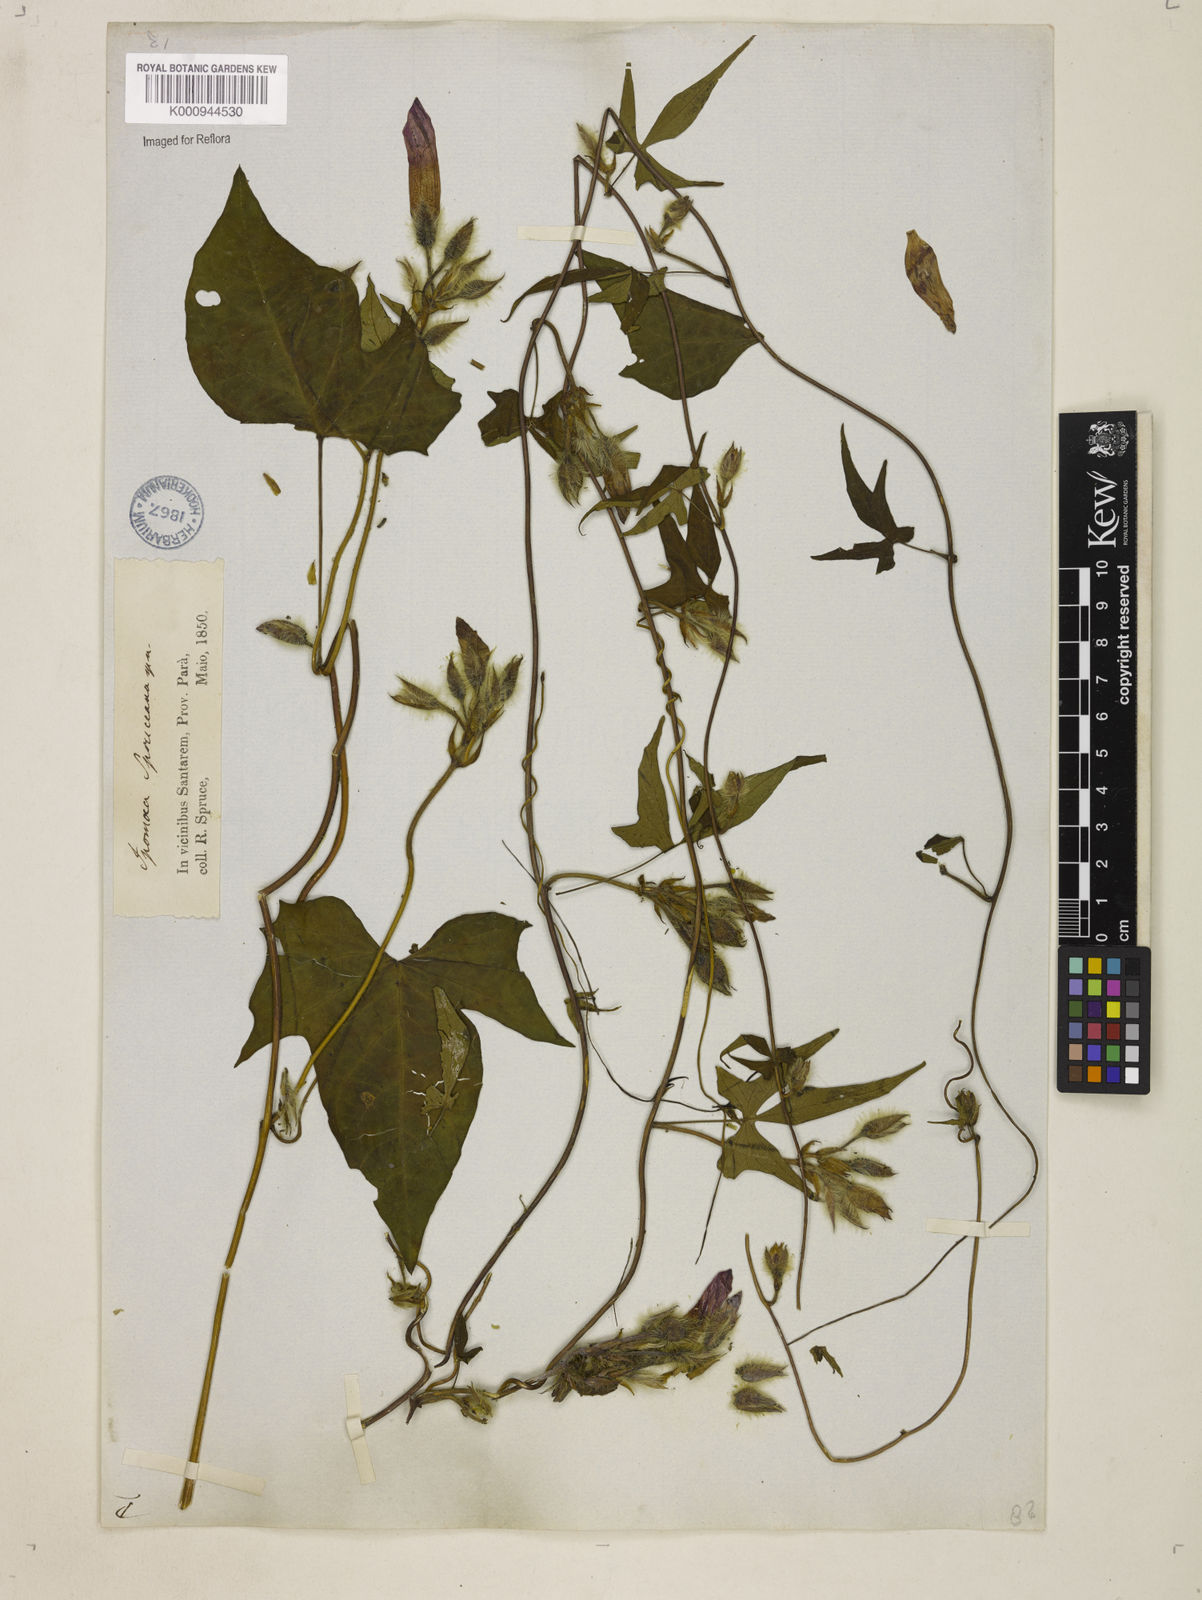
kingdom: Plantae
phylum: Tracheophyta
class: Magnoliopsida
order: Solanales
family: Convolvulaceae
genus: Ipomoea
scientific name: Ipomoea spruceana
